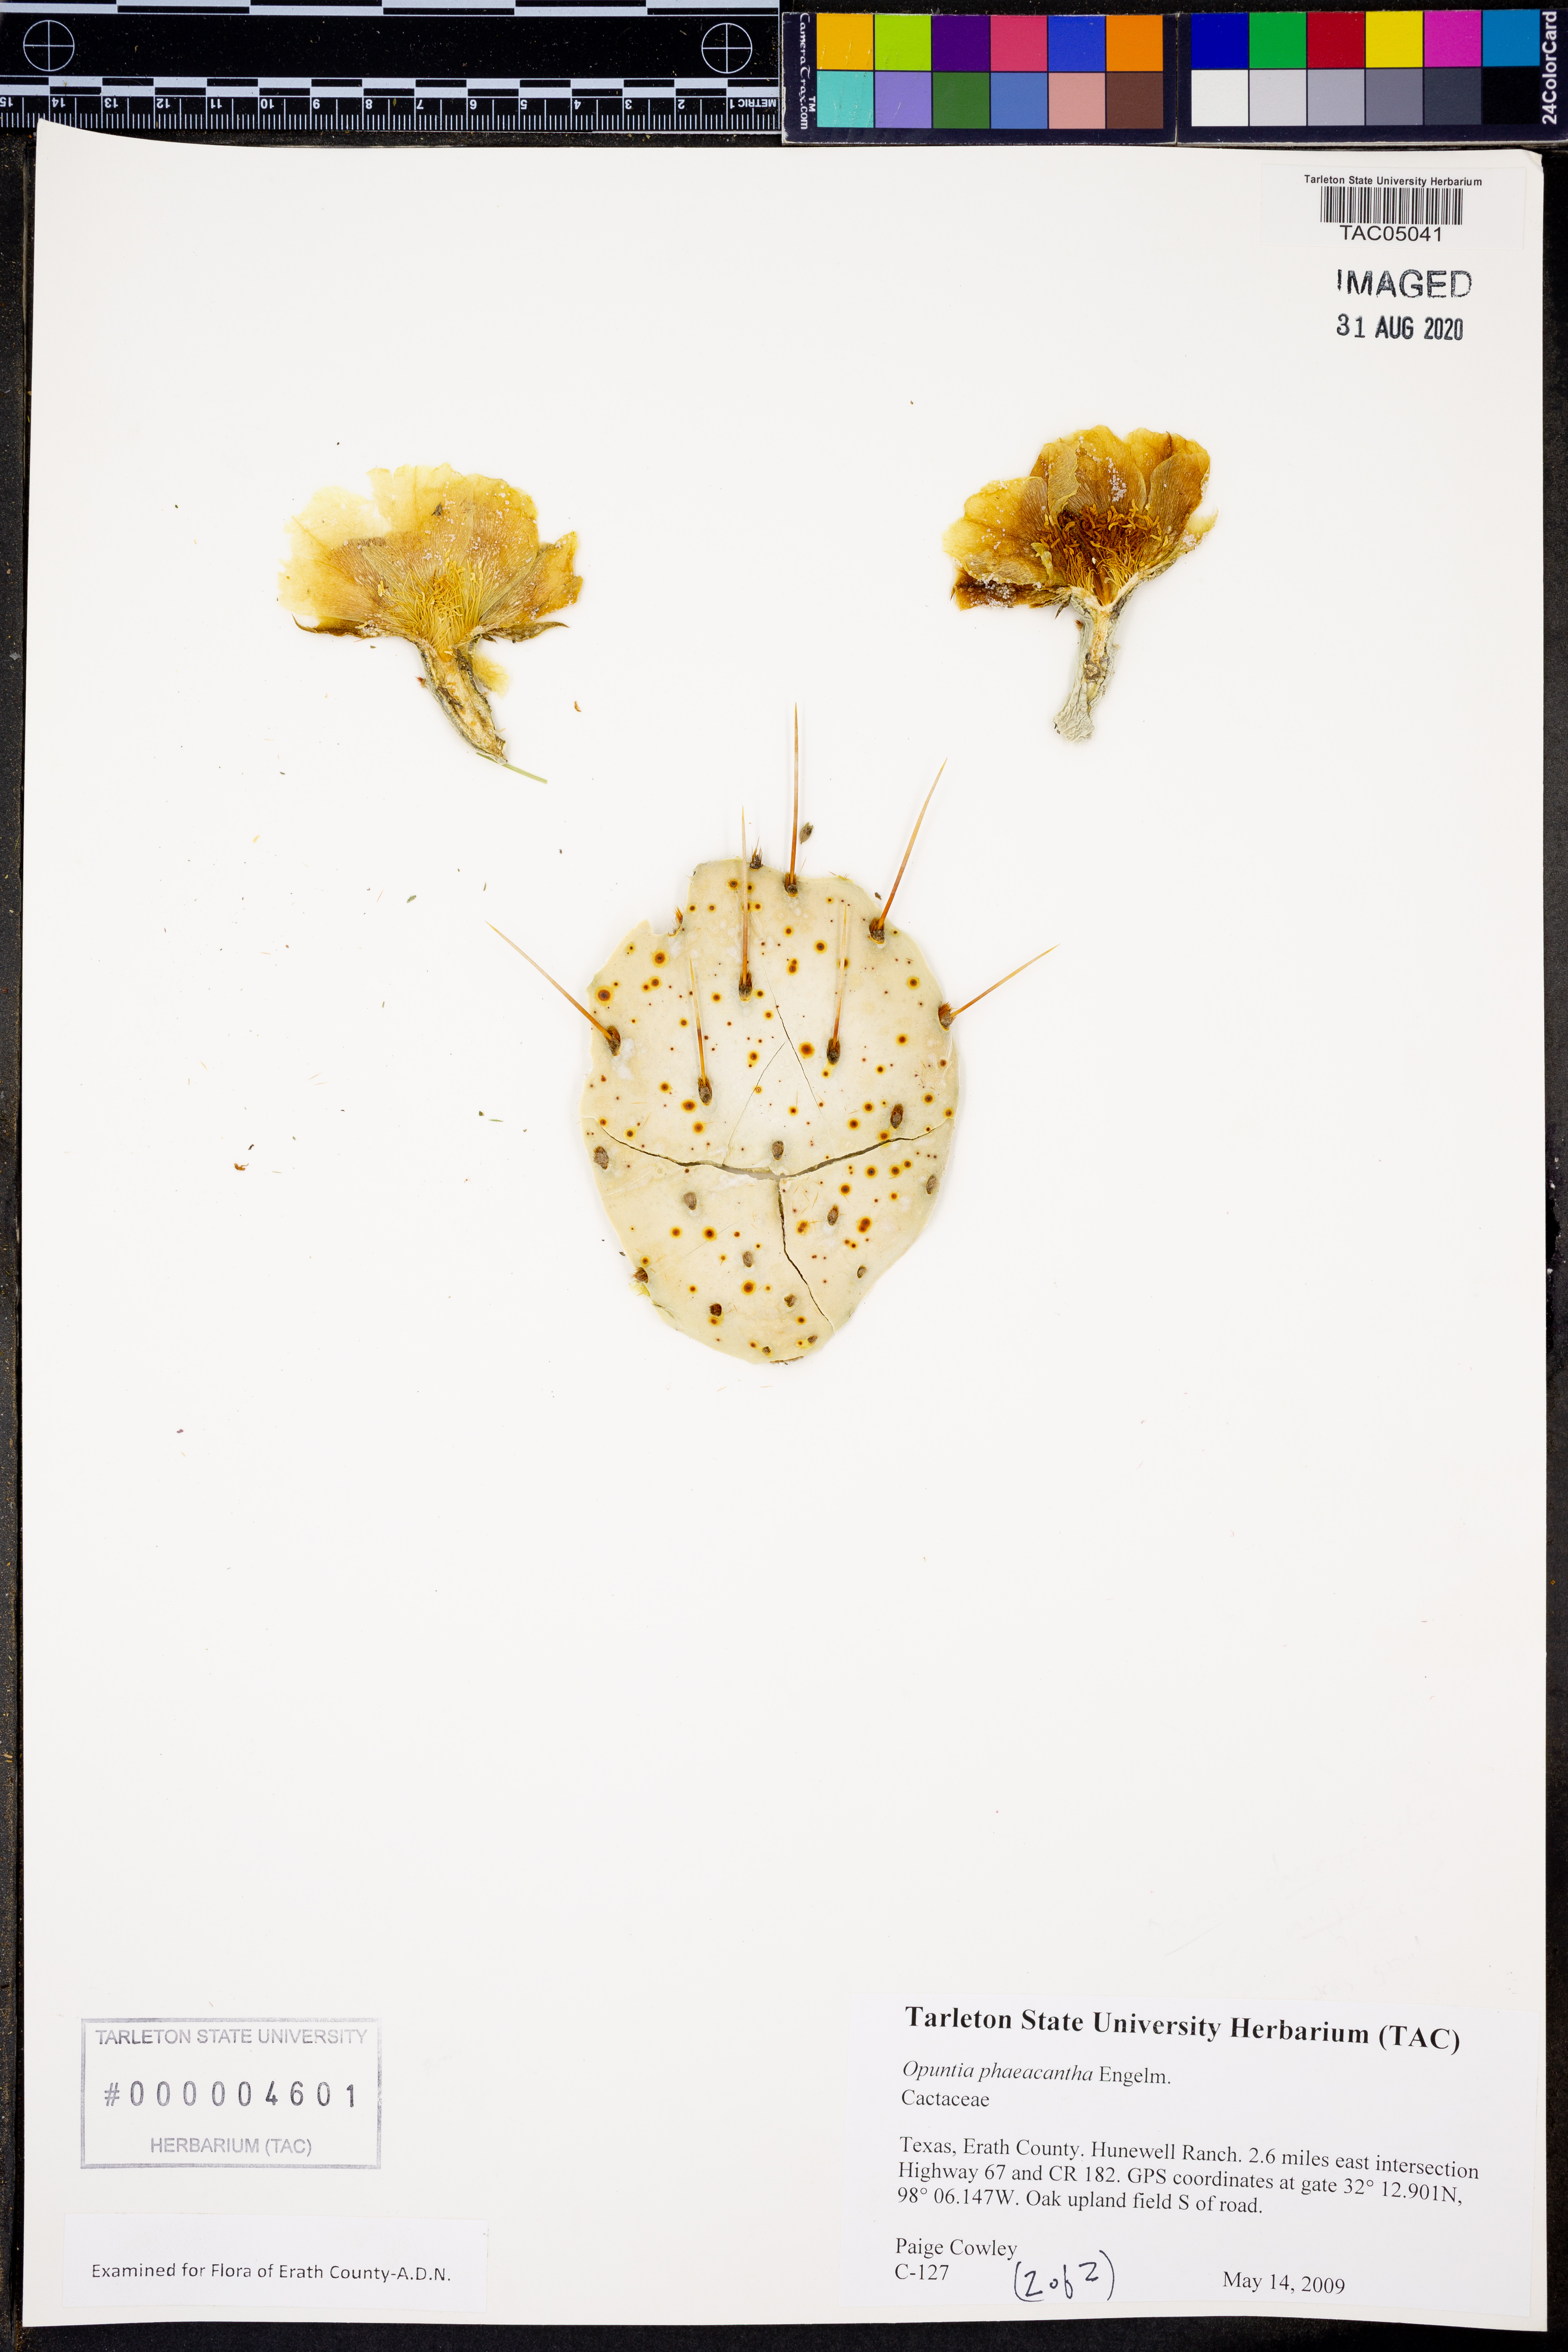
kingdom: Plantae
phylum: Tracheophyta
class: Magnoliopsida
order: Caryophyllales
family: Cactaceae
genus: Opuntia
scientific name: Opuntia phaeacantha
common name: New mexico prickly-pear
